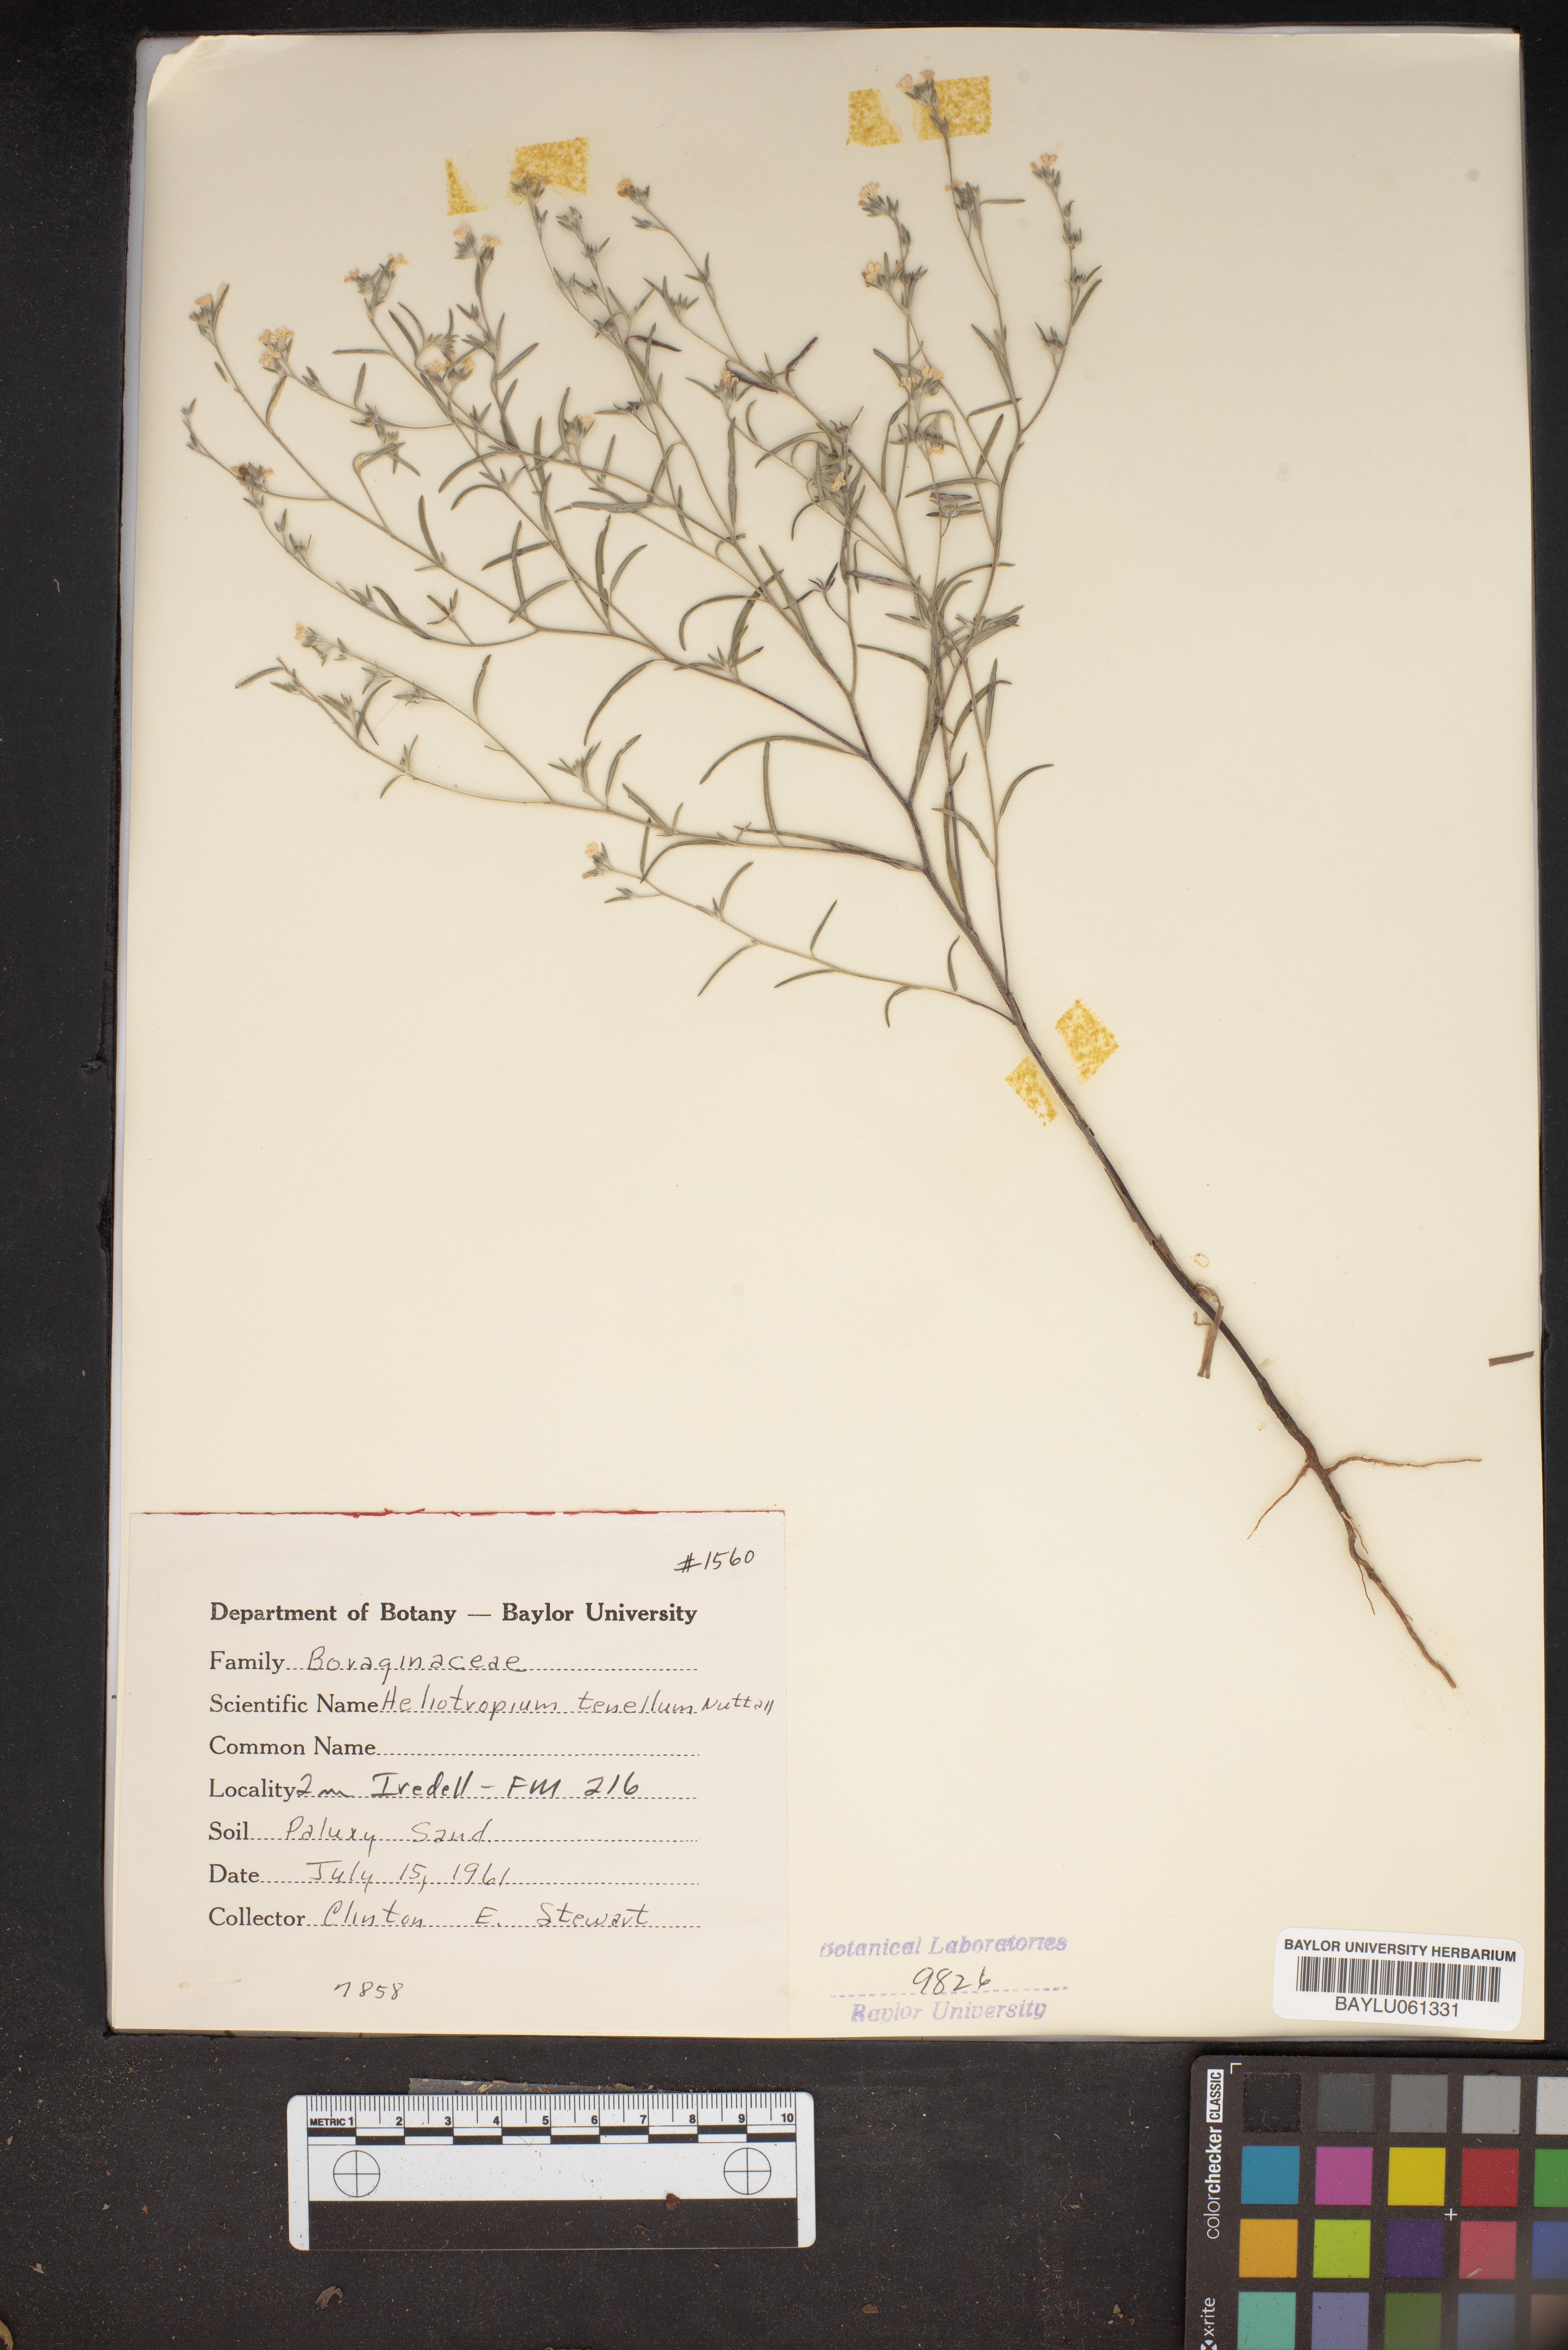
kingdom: Plantae
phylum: Tracheophyta
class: Magnoliopsida
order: Boraginales
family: Heliotropiaceae
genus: Euploca
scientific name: Euploca tenella
